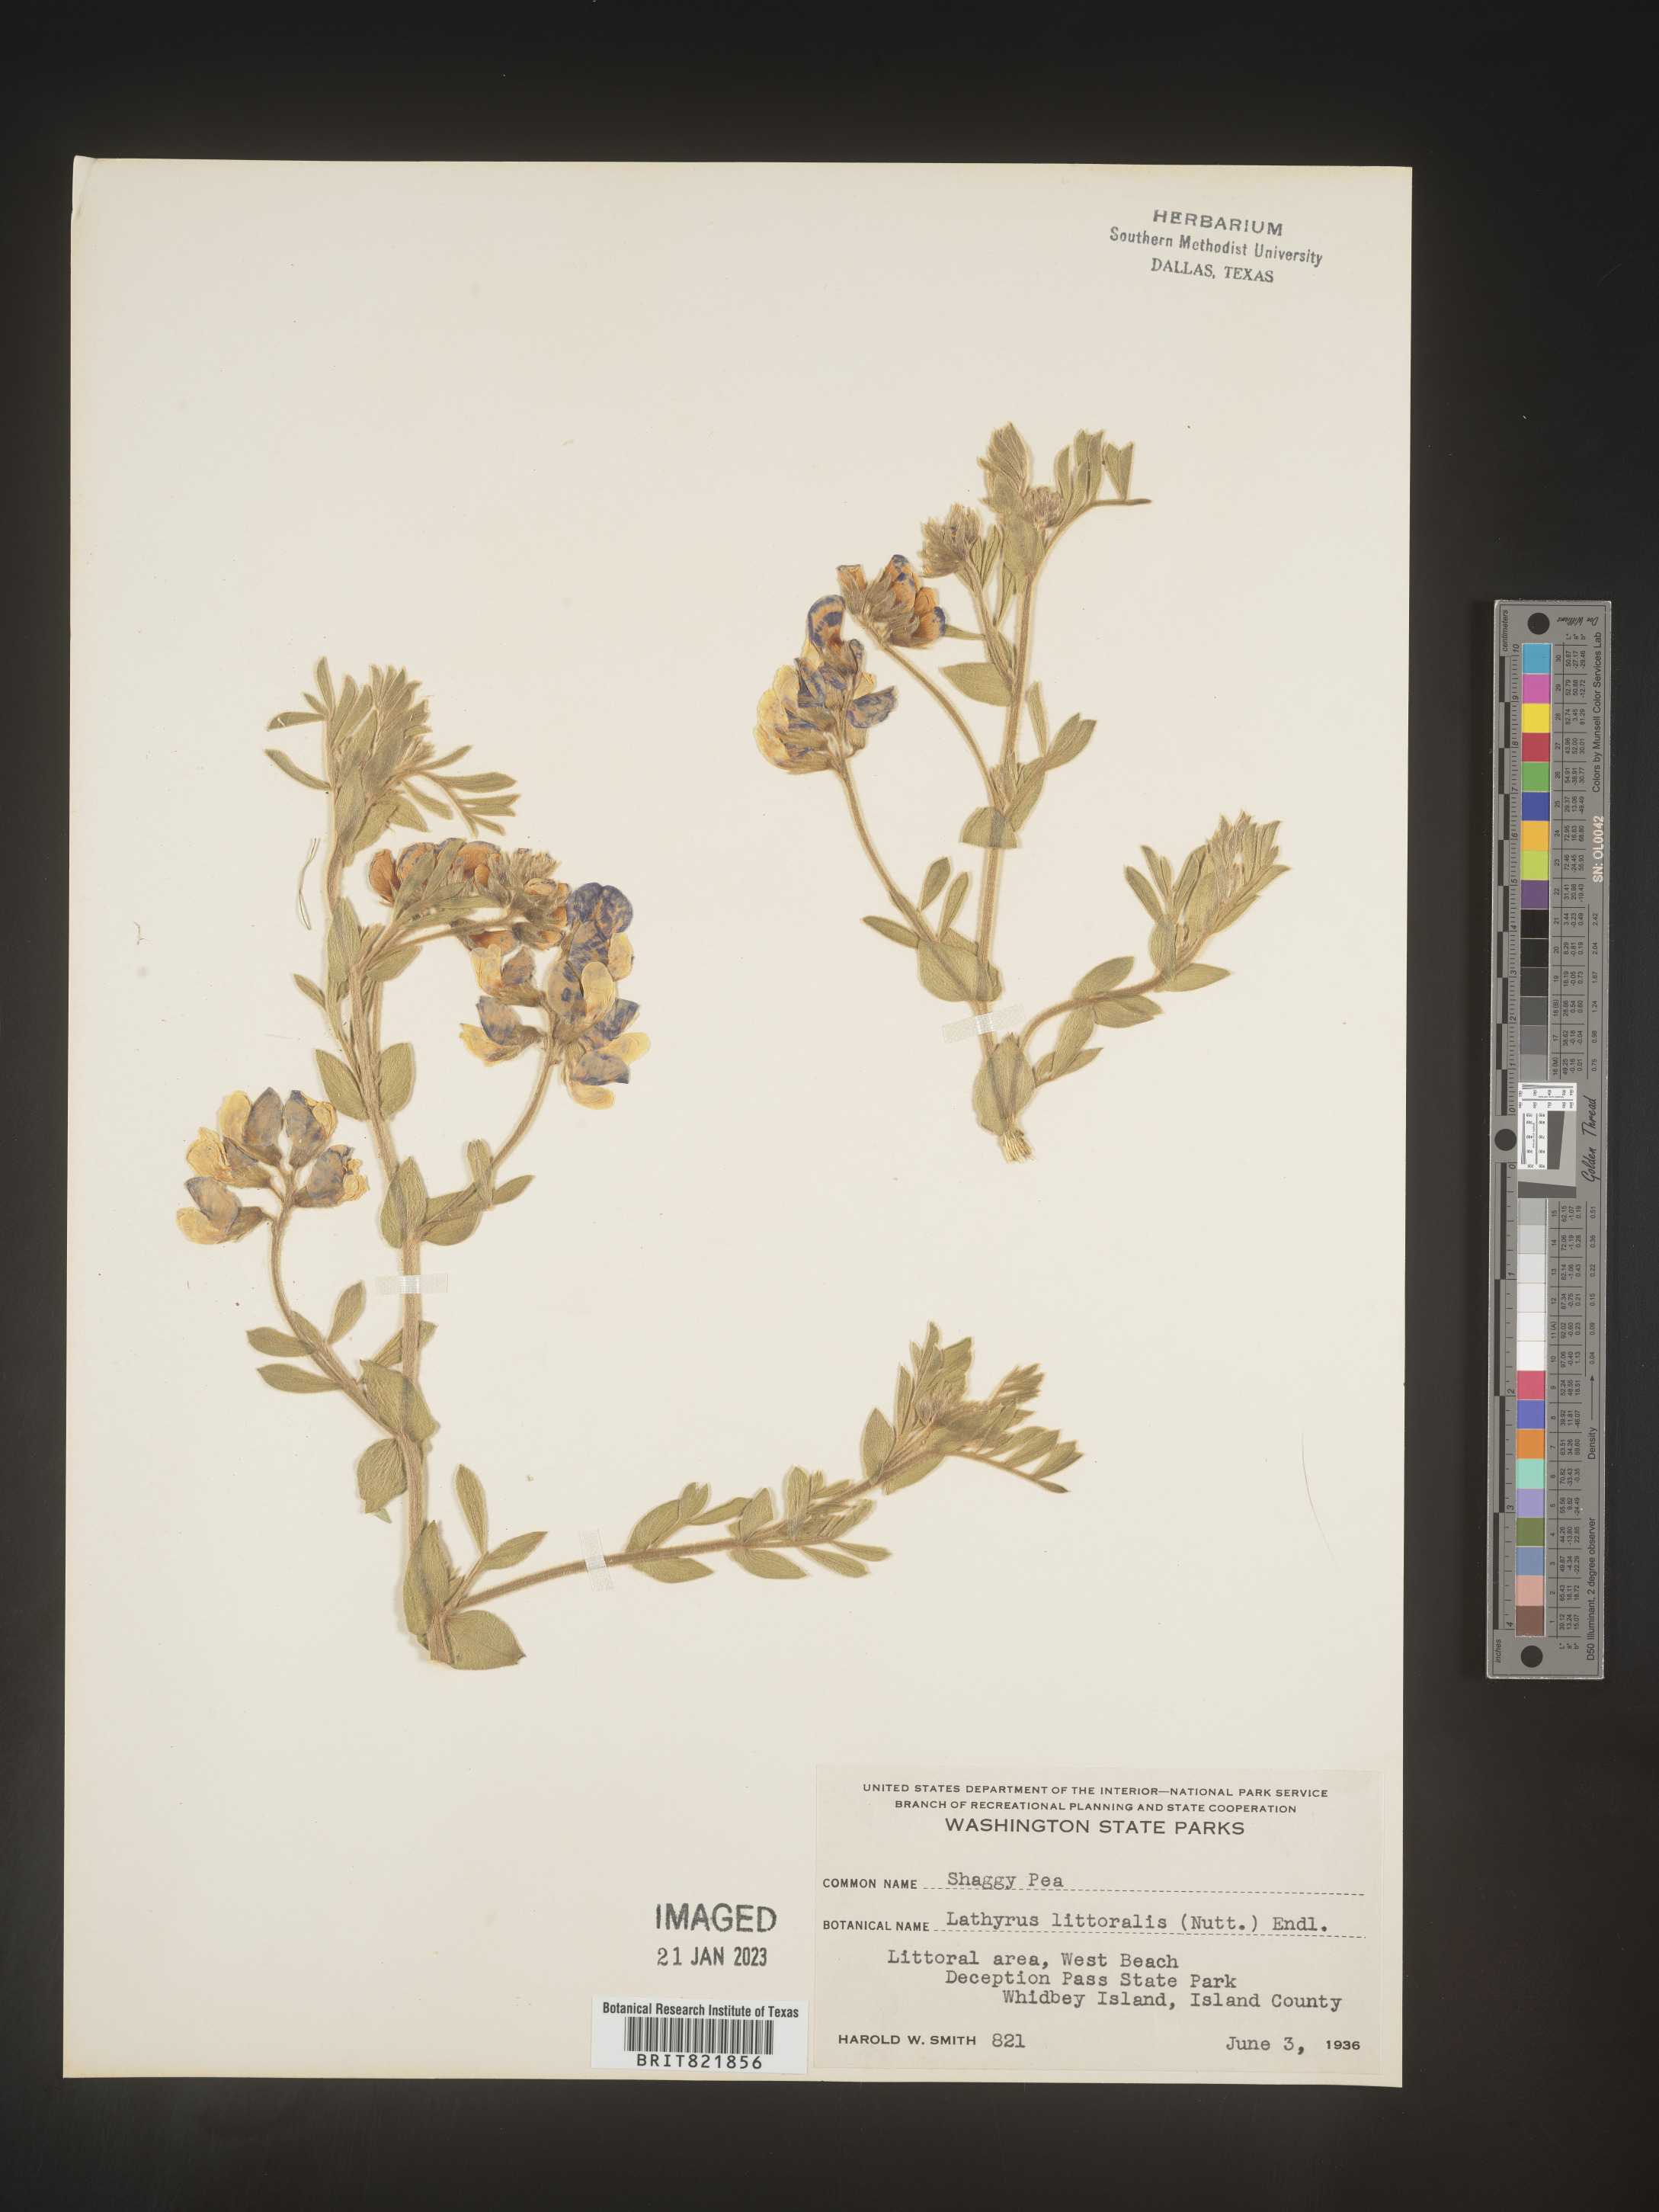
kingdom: Plantae
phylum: Tracheophyta
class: Magnoliopsida
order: Fabales
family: Fabaceae
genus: Lathyrus
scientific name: Lathyrus
